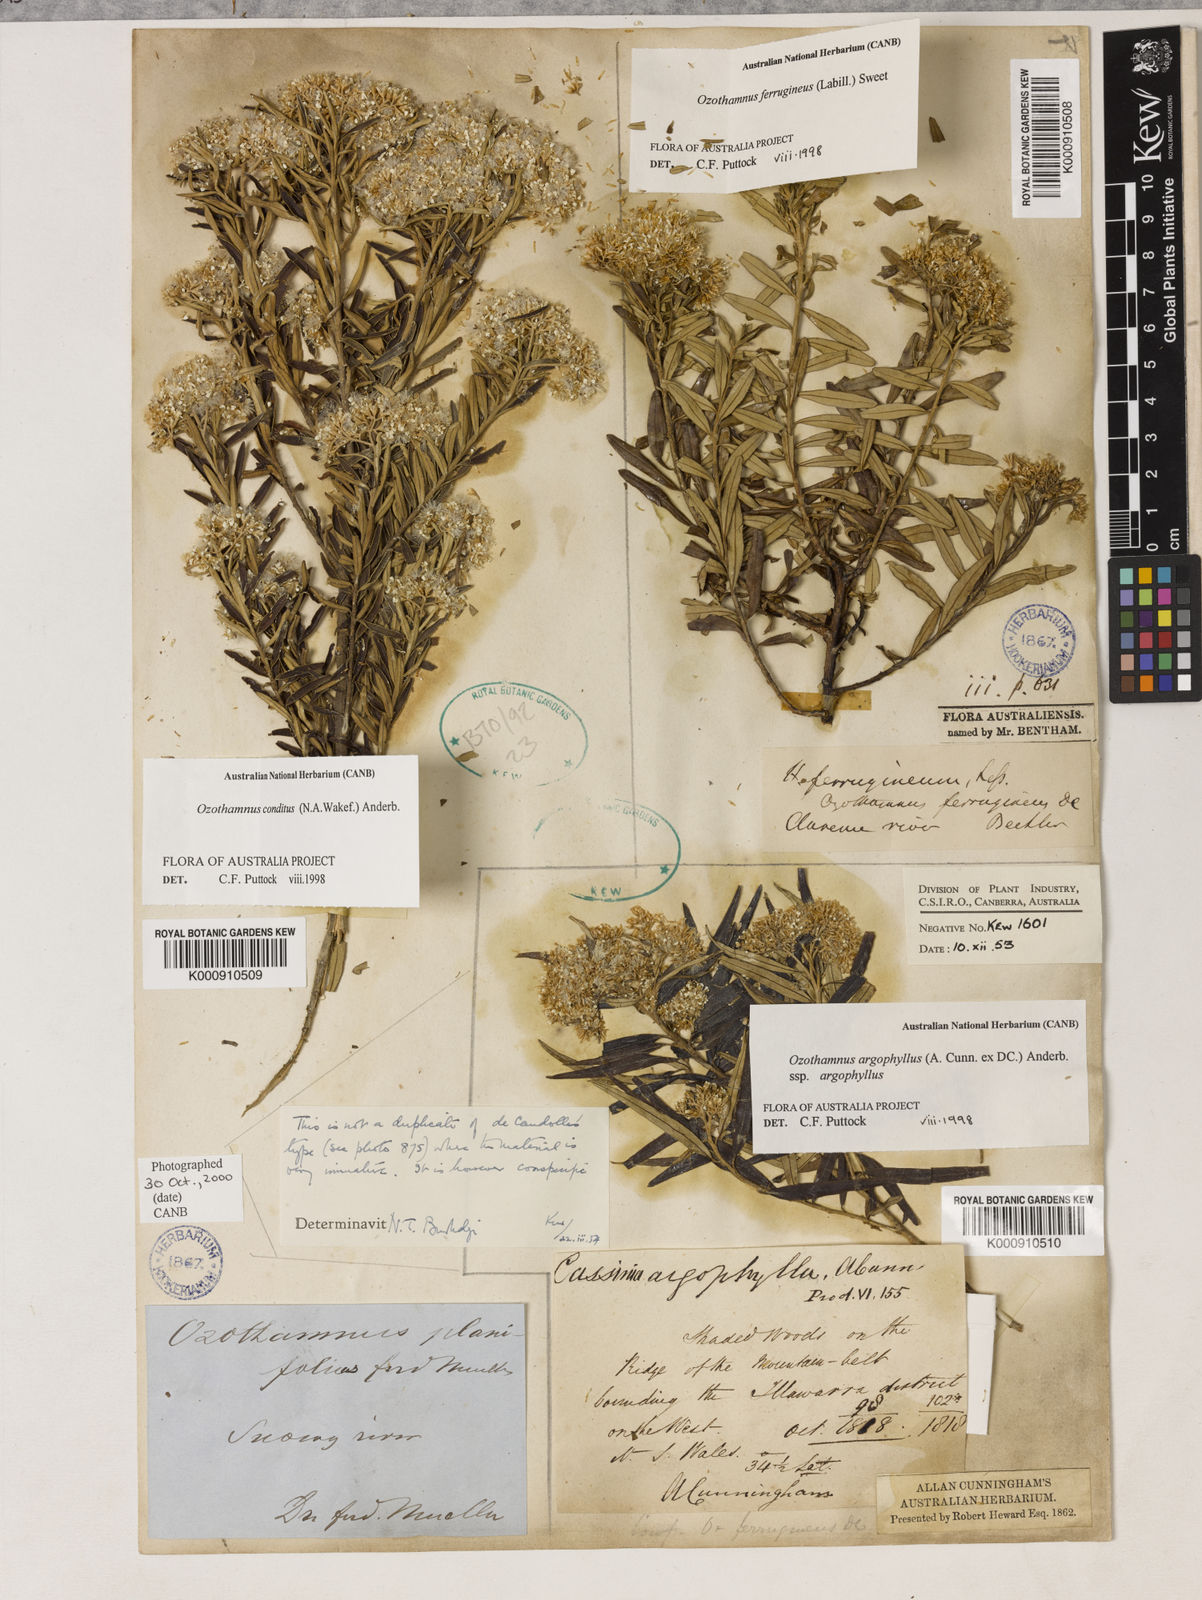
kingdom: Plantae
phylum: Tracheophyta
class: Magnoliopsida
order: Asterales
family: Asteraceae
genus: Ozothamnus
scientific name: Ozothamnus argophyllus
